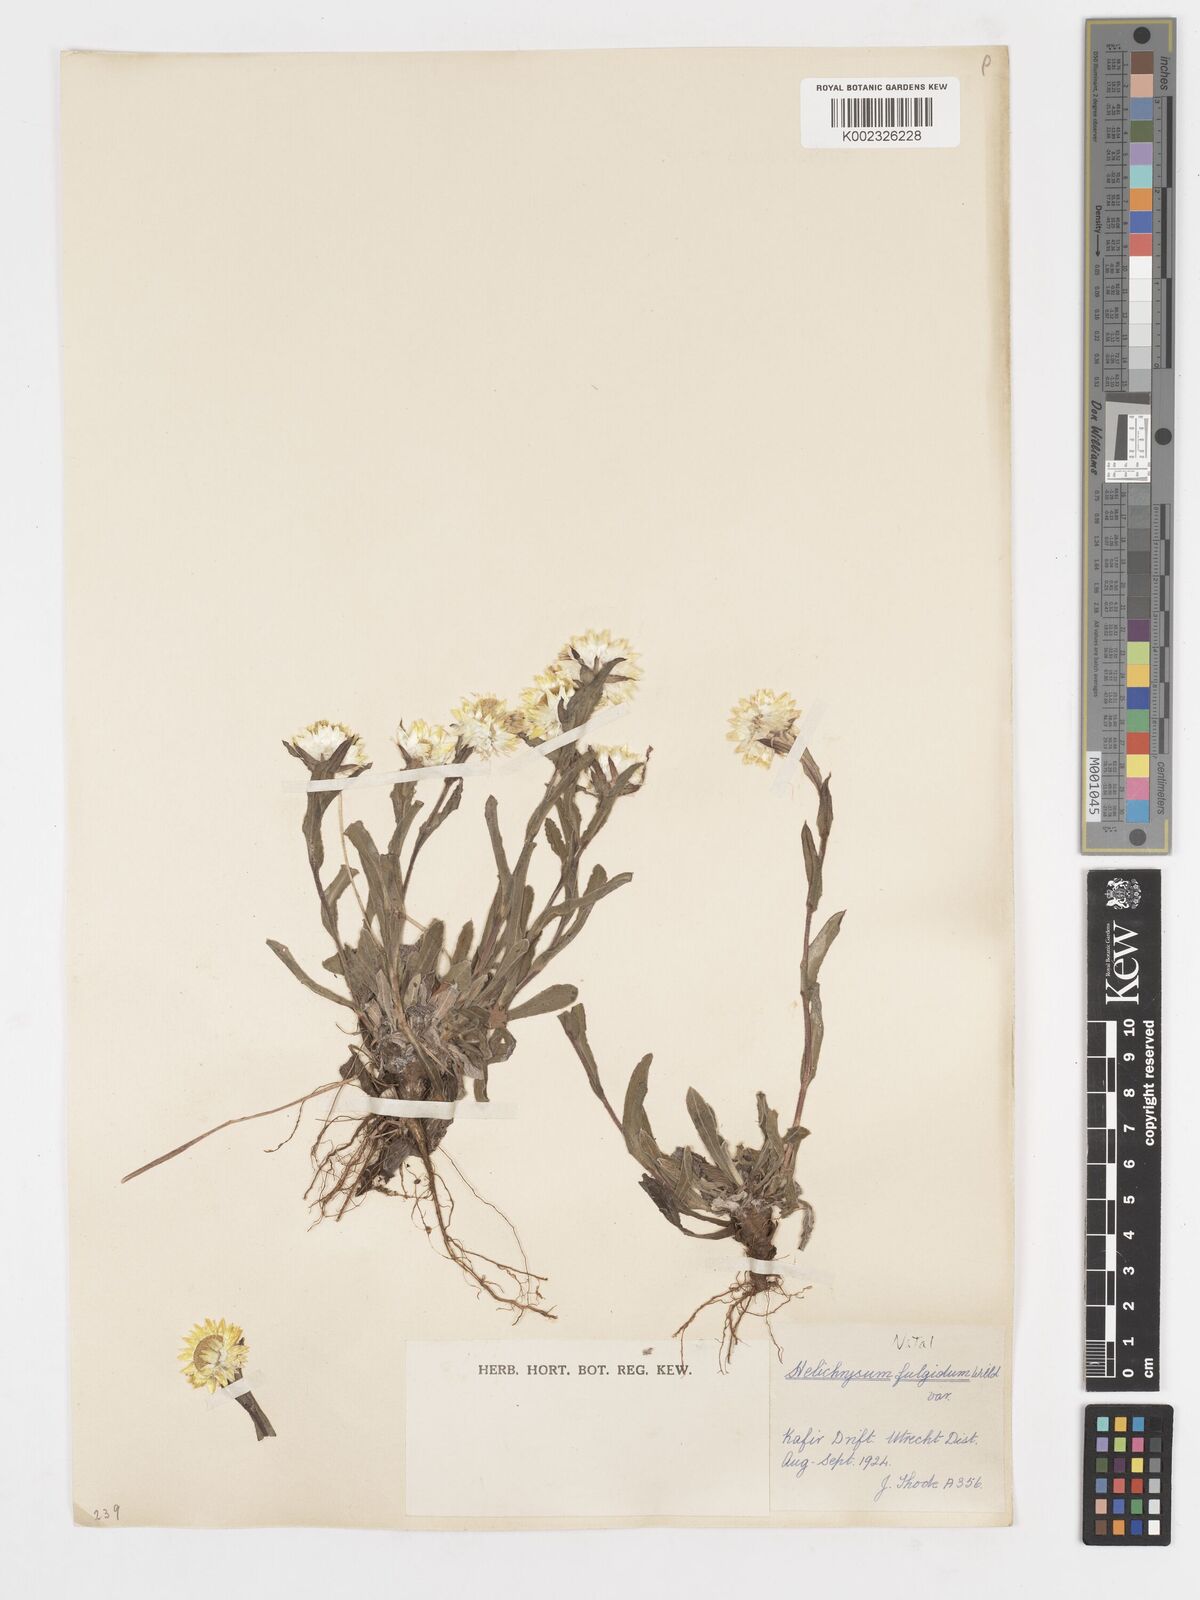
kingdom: Plantae
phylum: Tracheophyta
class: Magnoliopsida
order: Asterales
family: Asteraceae
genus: Helichrysum
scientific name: Helichrysum aureum
